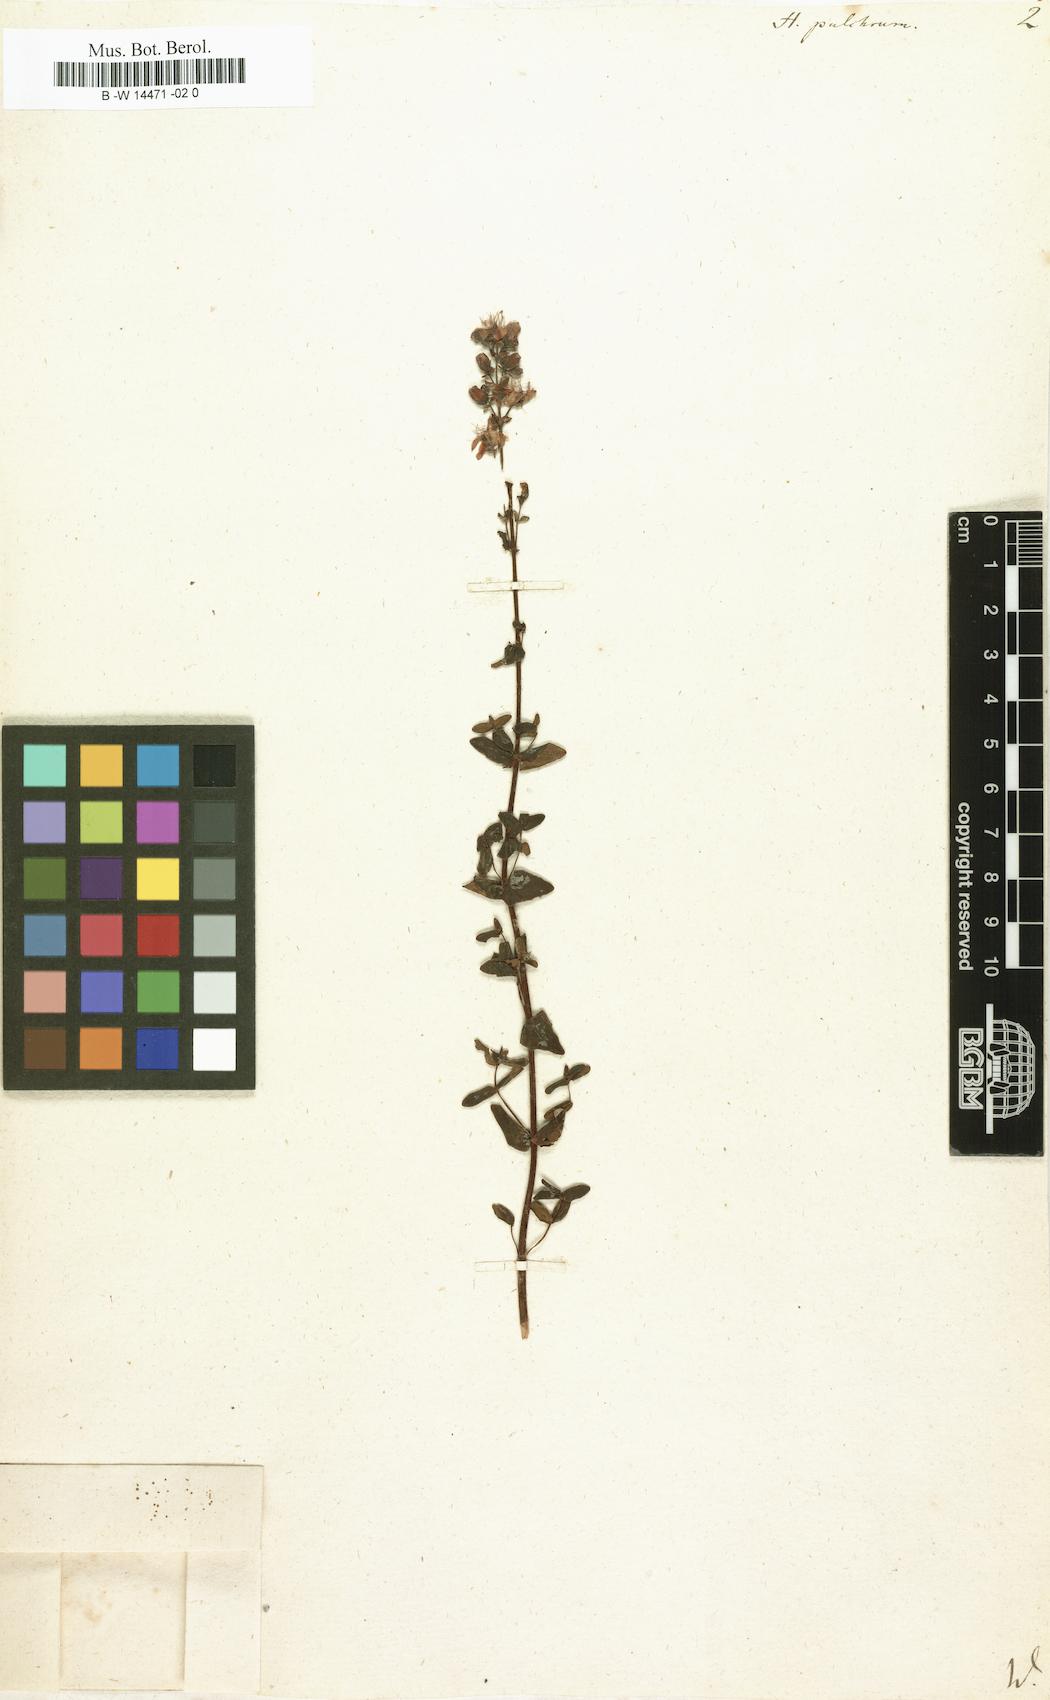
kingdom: Plantae
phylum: Tracheophyta
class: Magnoliopsida
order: Malpighiales
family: Hypericaceae
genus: Hypericum
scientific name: Hypericum pulchrum
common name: Slender st. john's-wort
